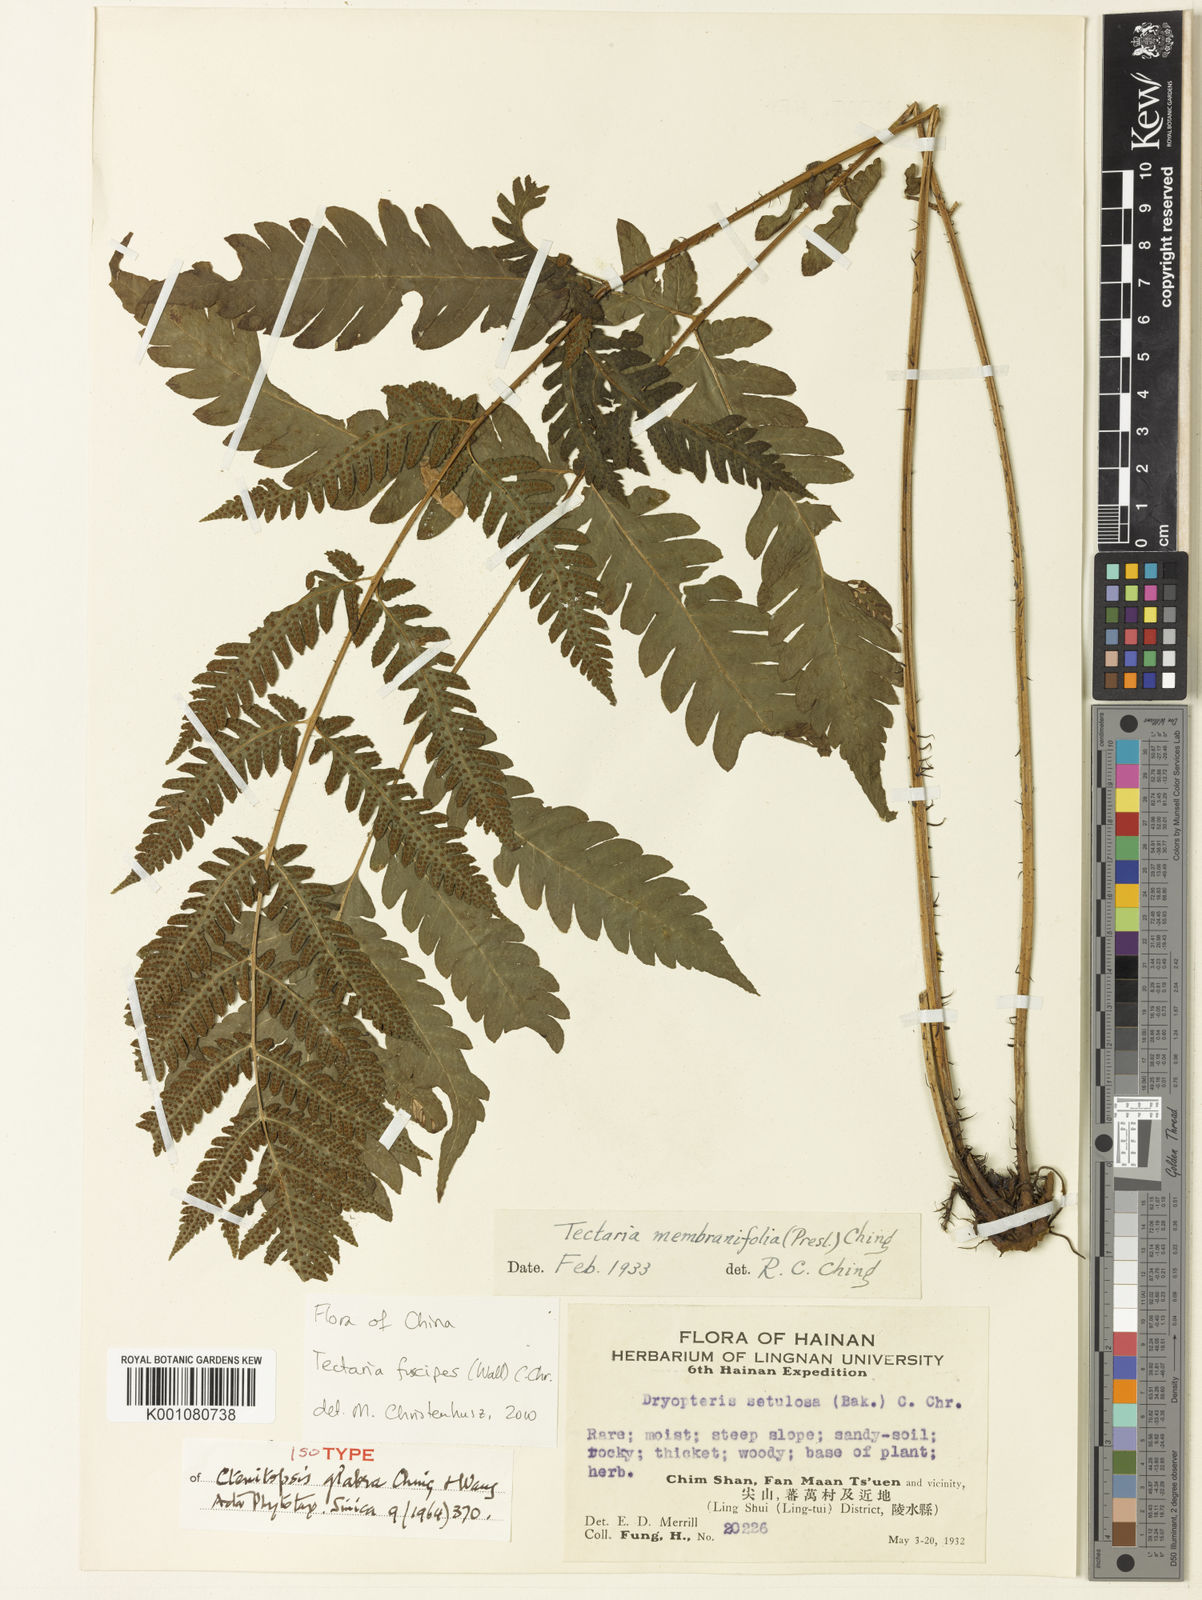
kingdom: Plantae
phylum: Tracheophyta
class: Polypodiopsida
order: Polypodiales
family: Tectariaceae
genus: Tectaria
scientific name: Tectaria fuscipes
